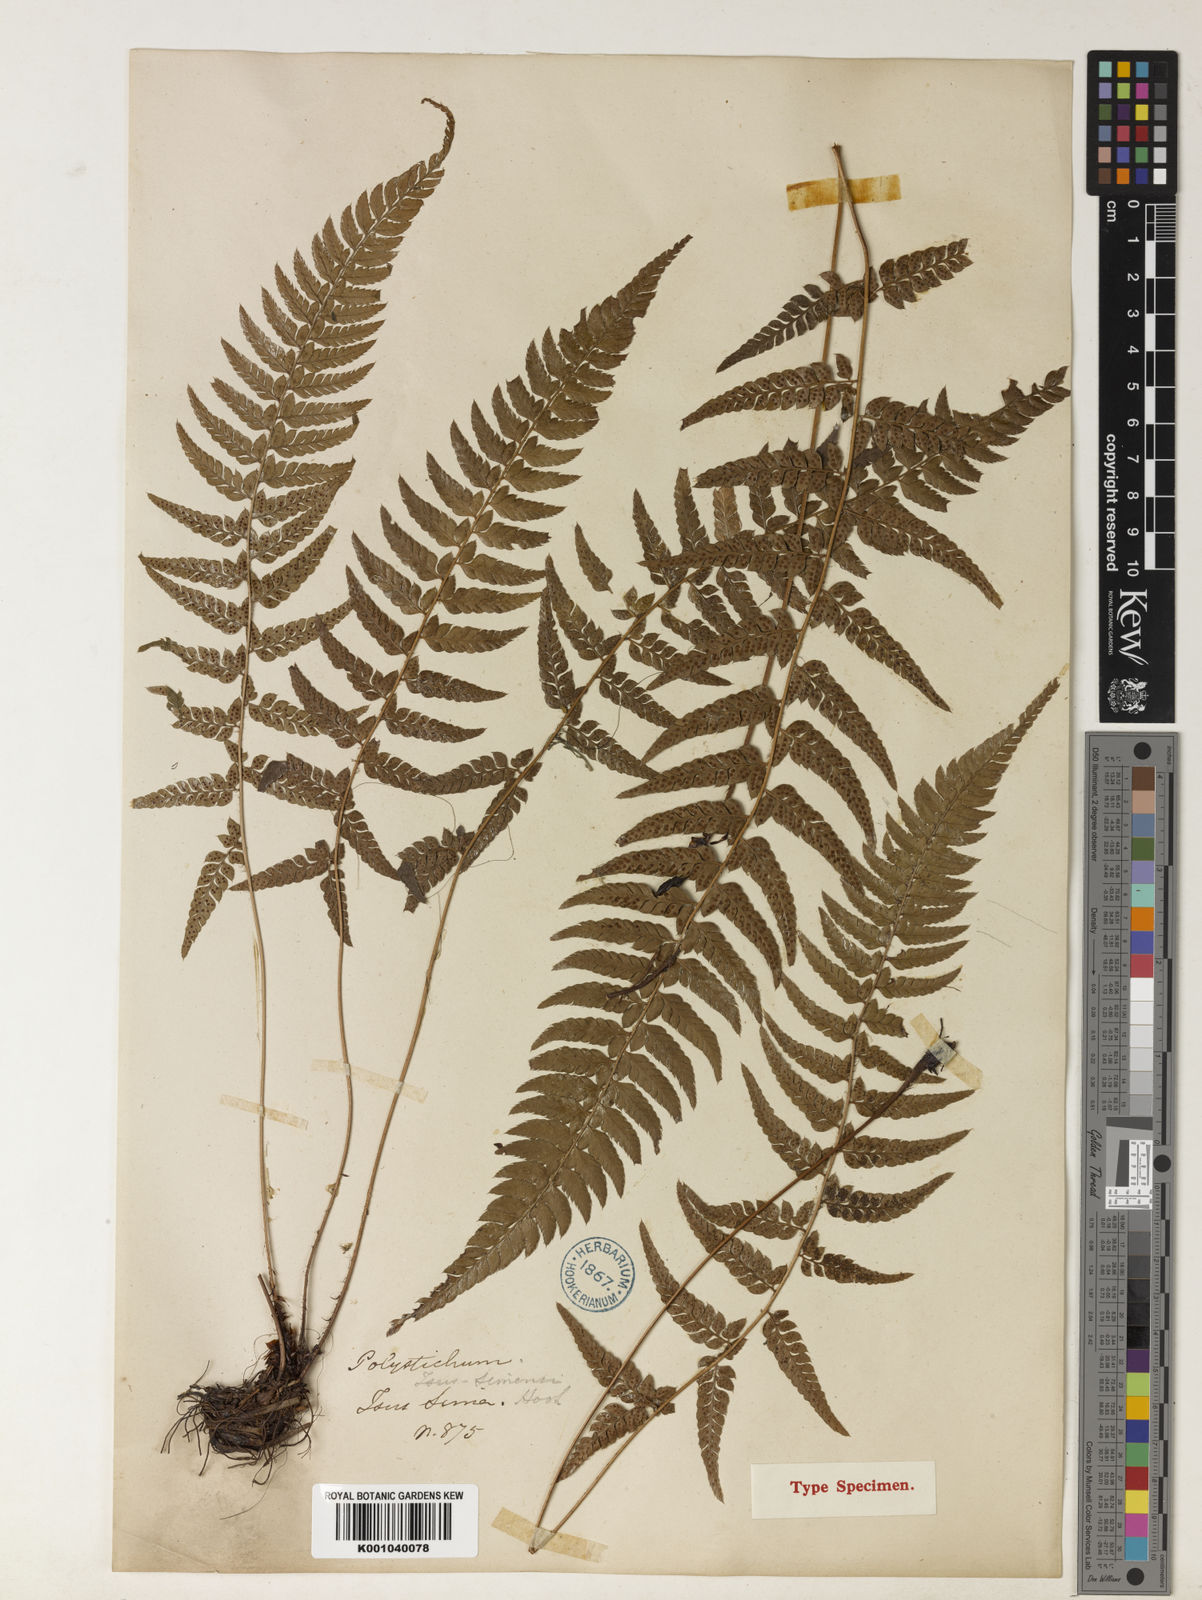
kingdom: Plantae
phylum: Tracheophyta
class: Polypodiopsida
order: Polypodiales
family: Dryopteridaceae
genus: Polystichum
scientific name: Polystichum luctuosum
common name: Korean rockfern
